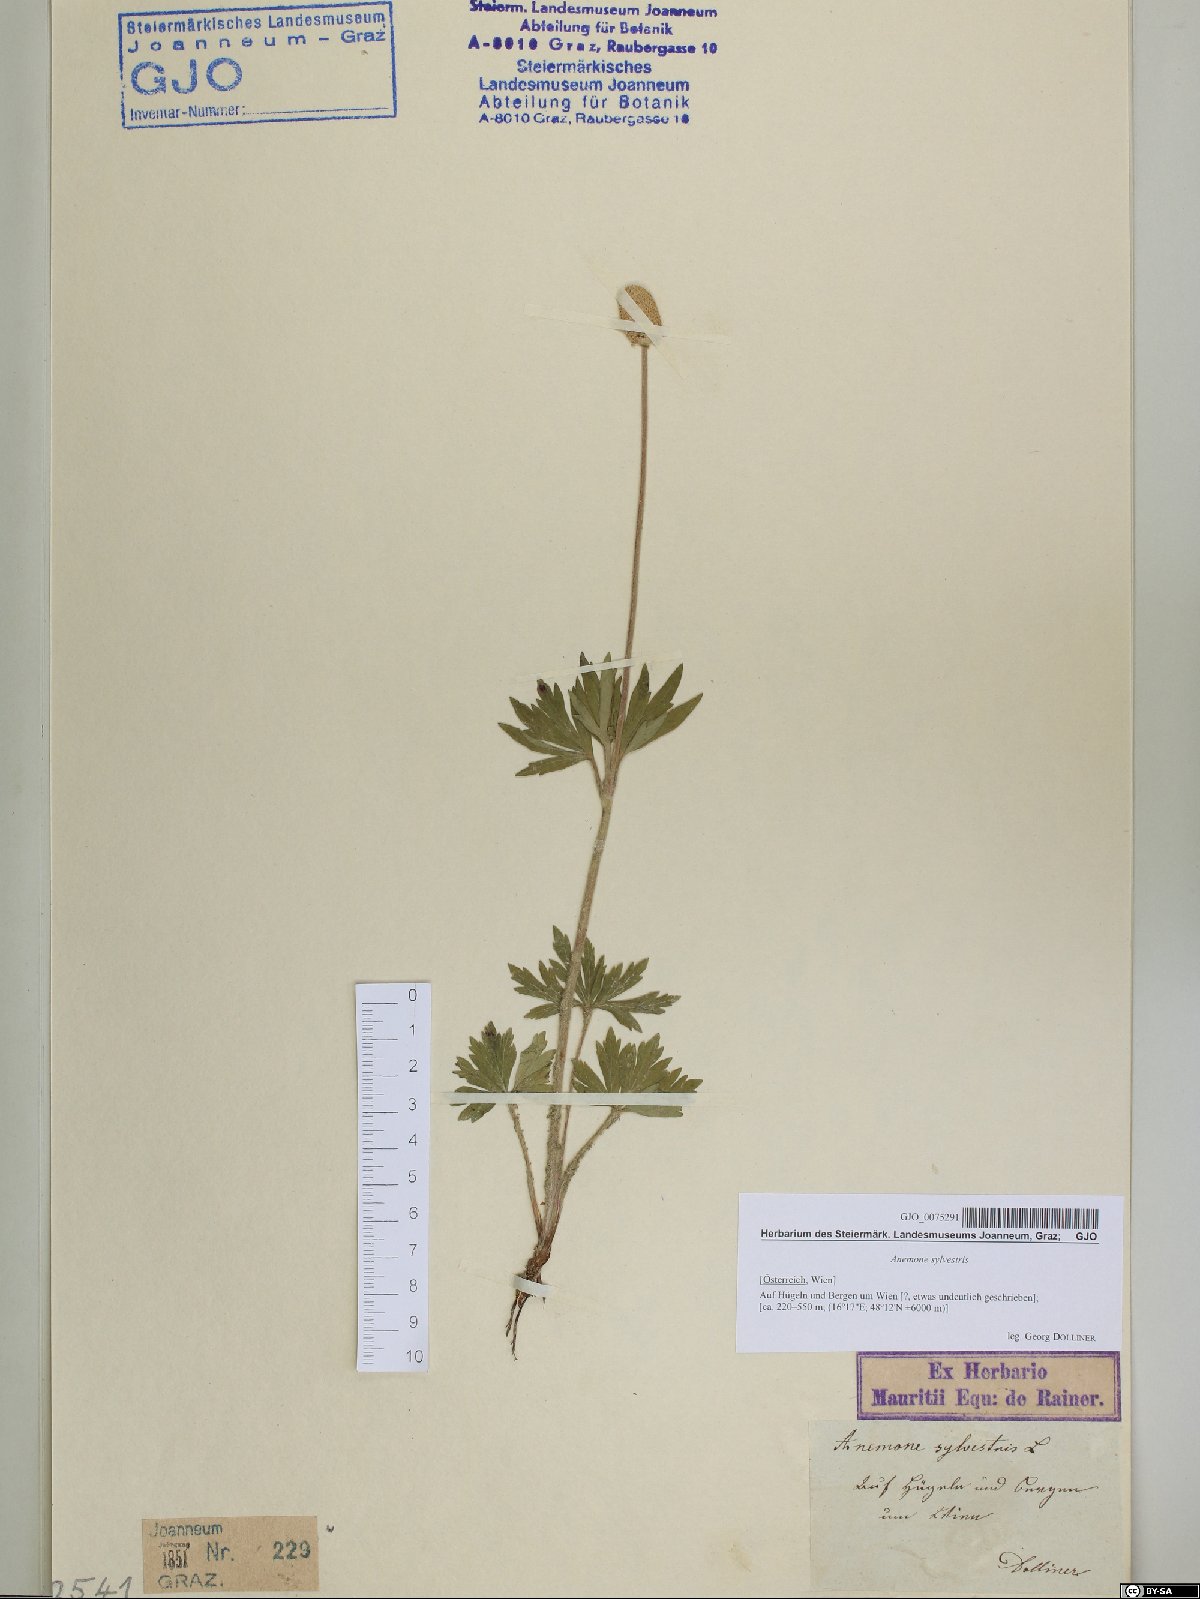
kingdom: Plantae
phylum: Tracheophyta
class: Magnoliopsida
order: Ranunculales
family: Ranunculaceae
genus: Anemone
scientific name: Anemone sylvestris
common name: Snowdrop anemone
